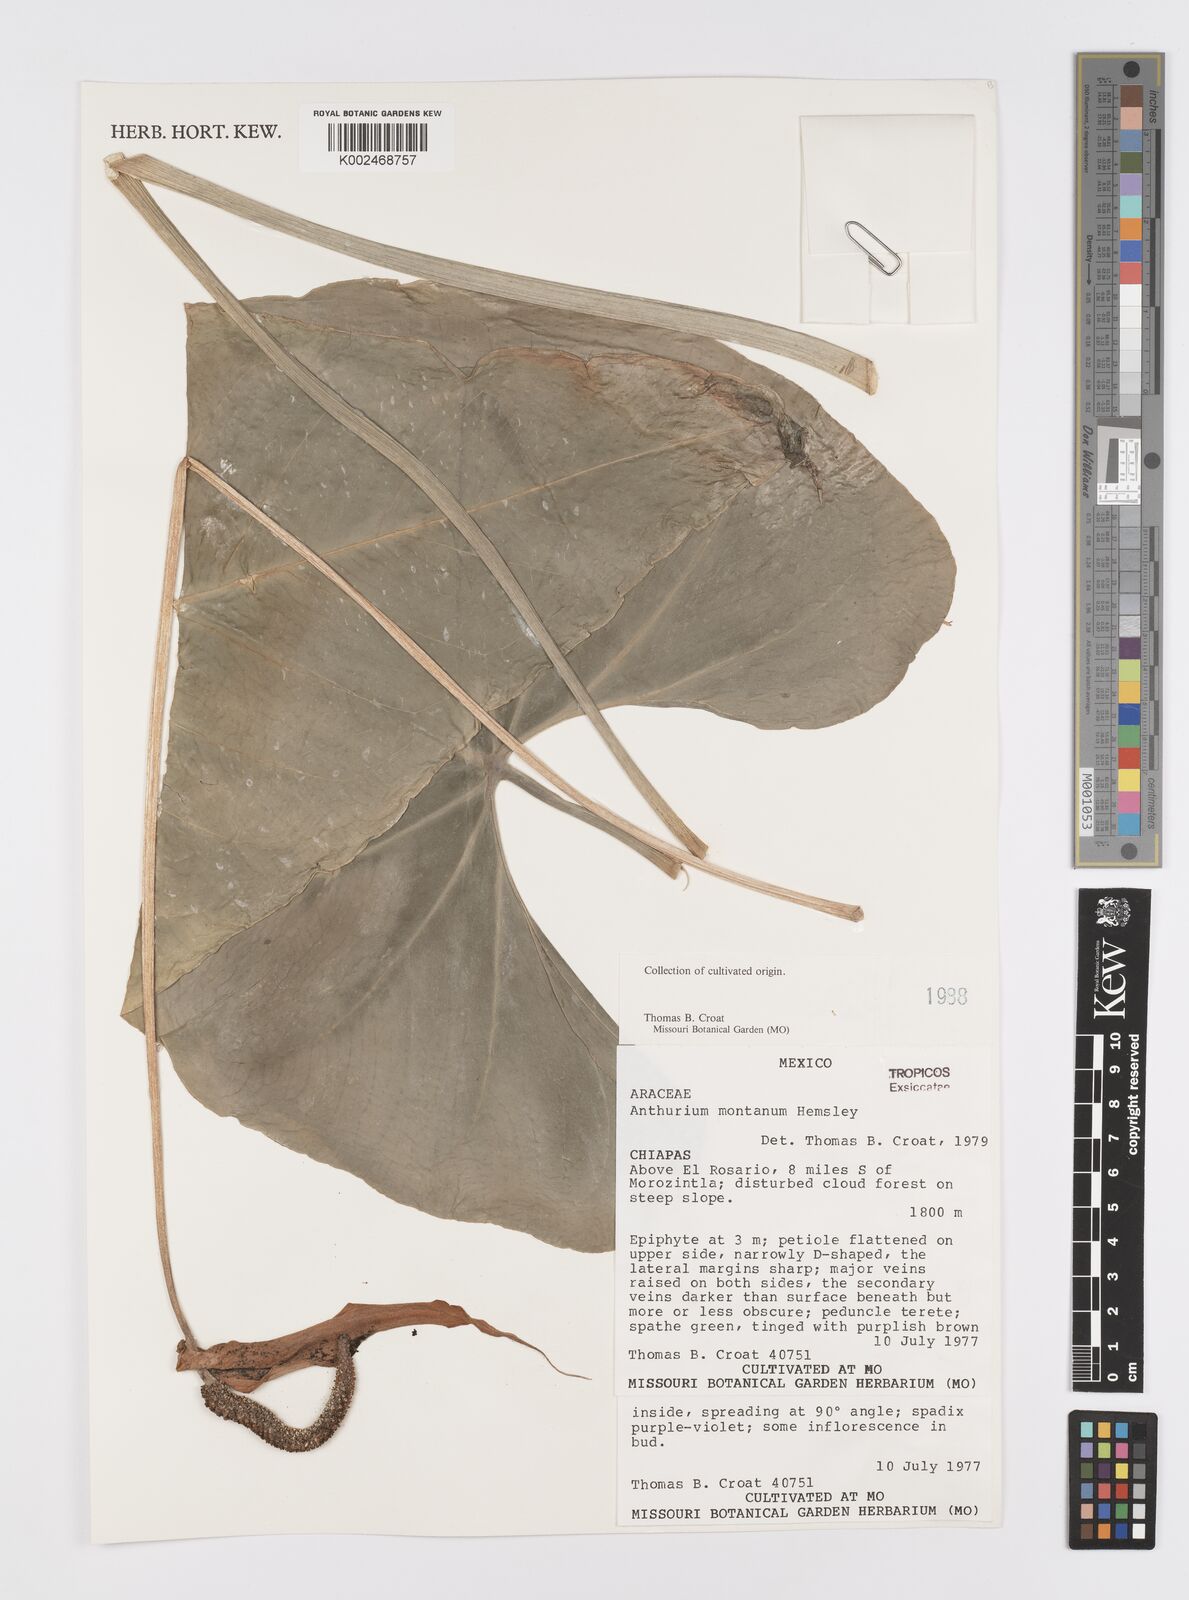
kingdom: Plantae
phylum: Tracheophyta
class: Liliopsida
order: Alismatales
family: Araceae
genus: Anthurium
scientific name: Anthurium montanum
